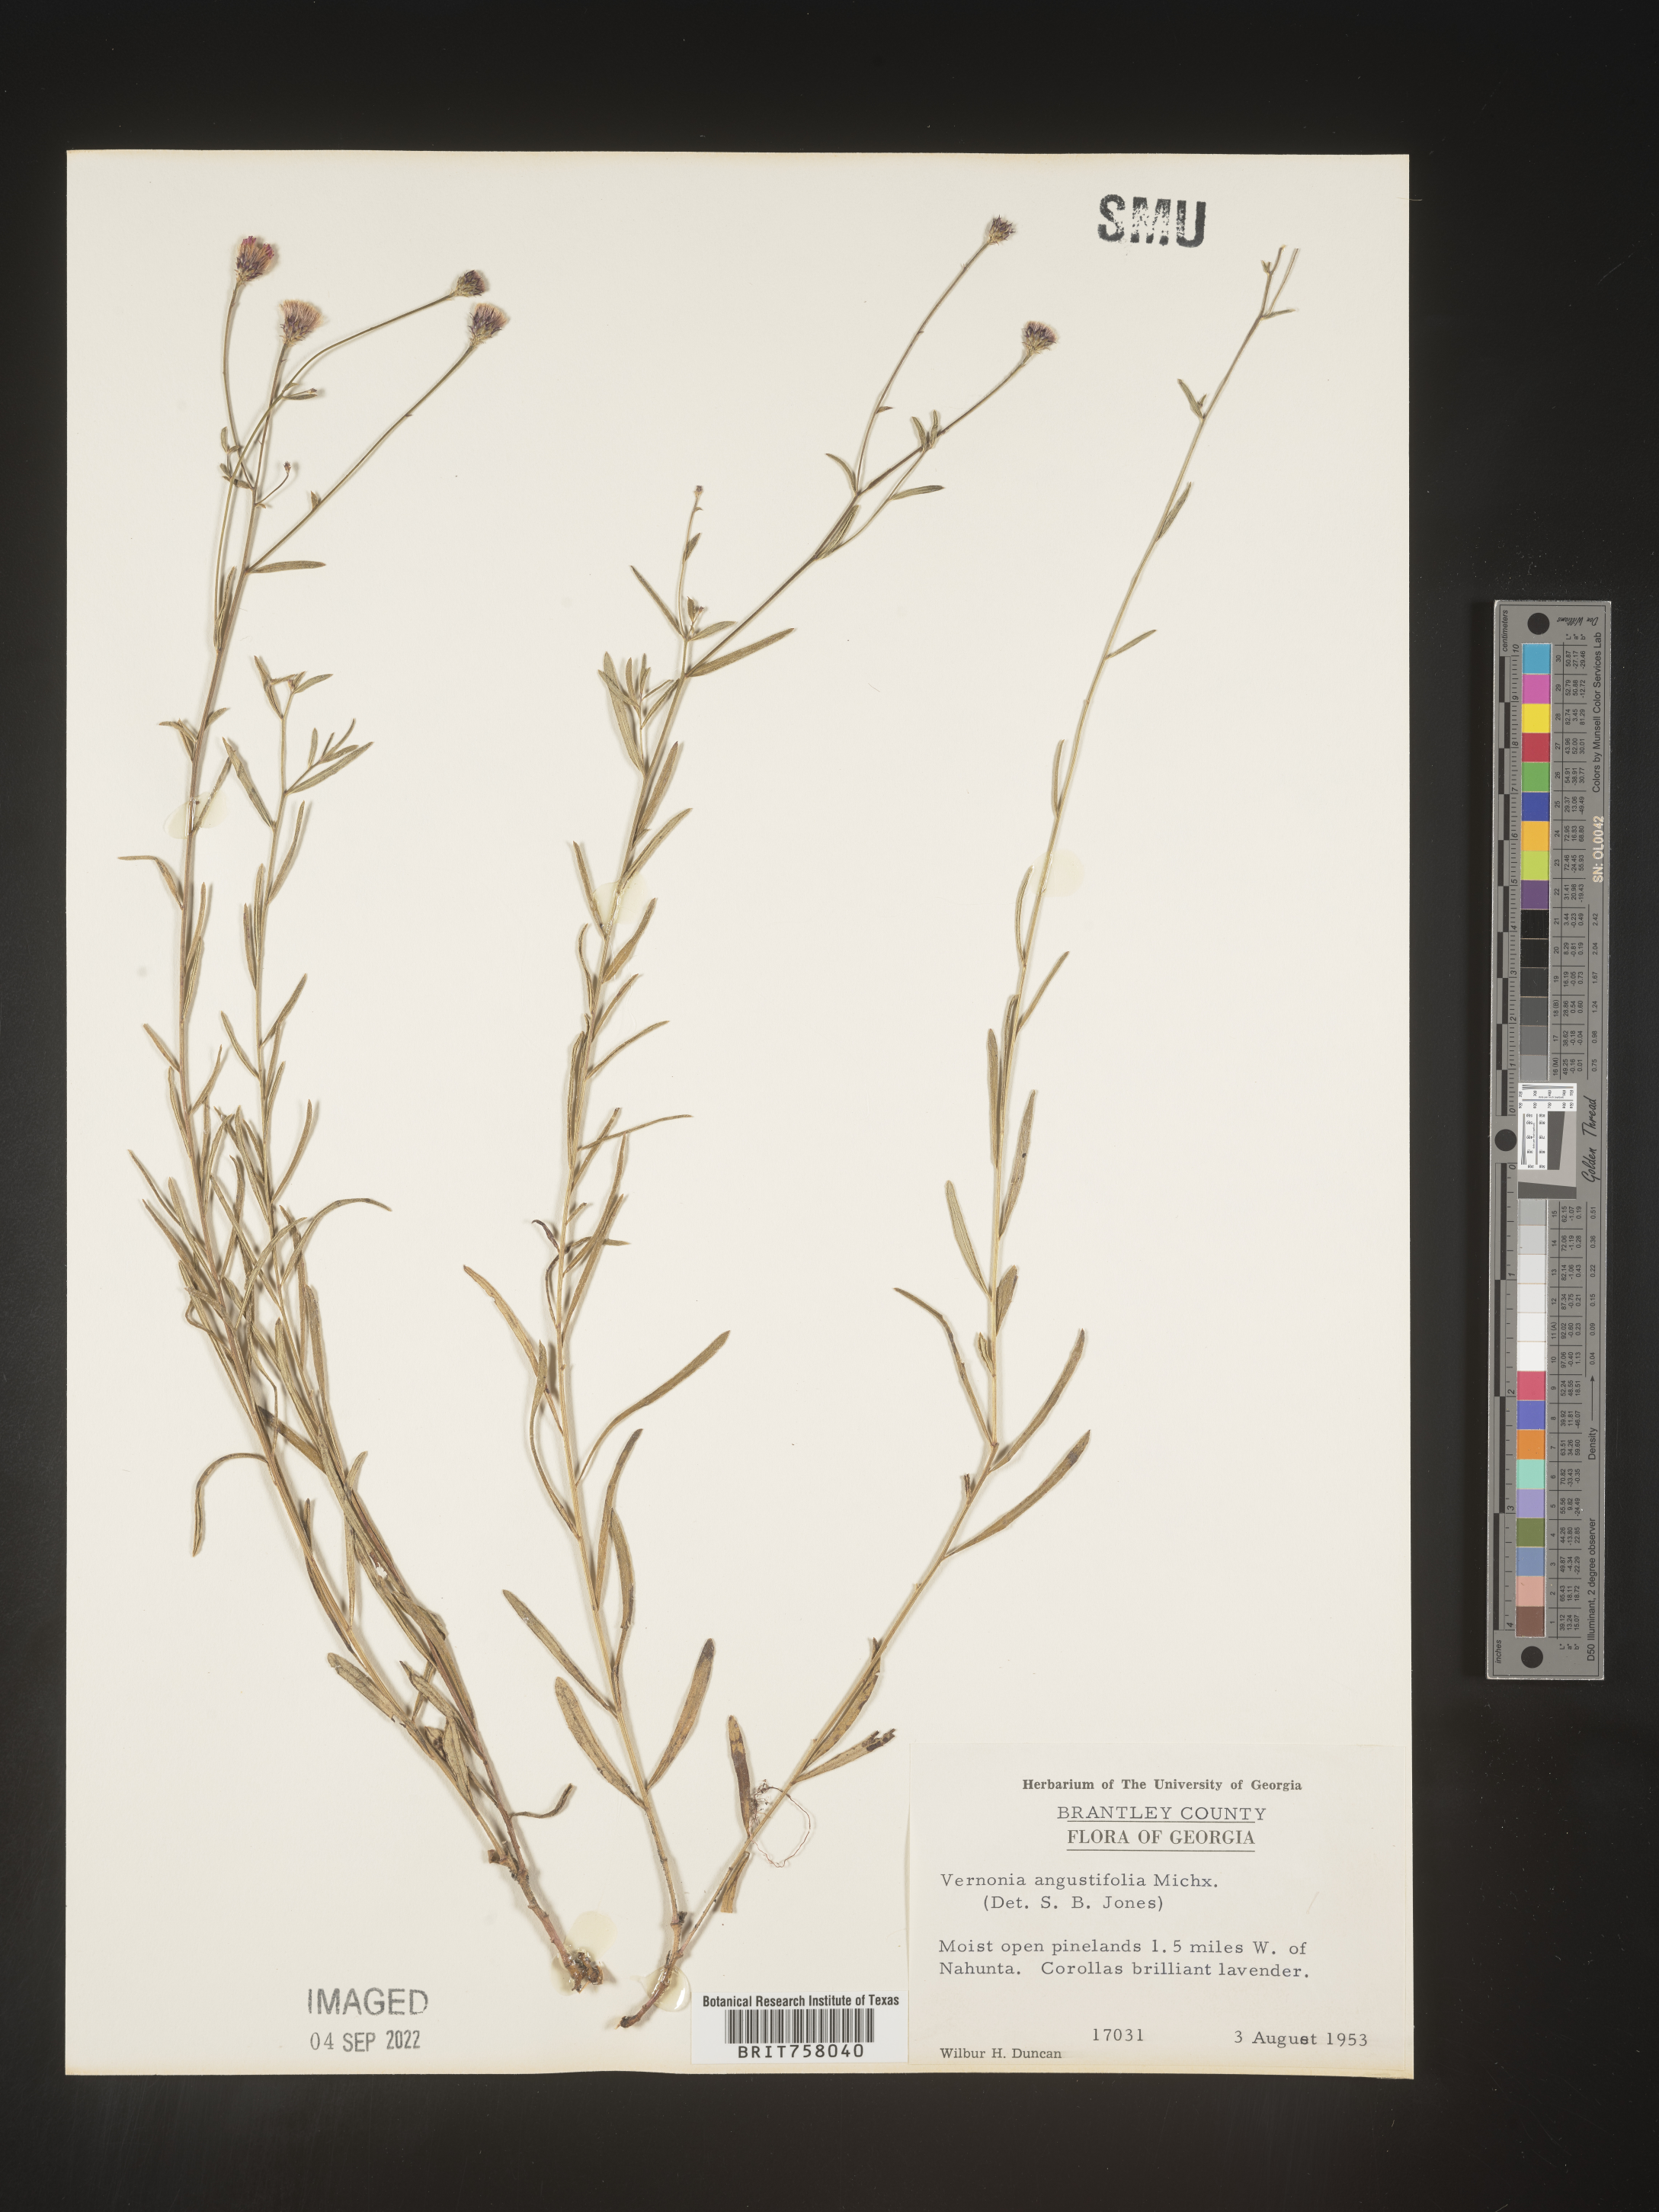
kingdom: Plantae
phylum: Tracheophyta
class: Magnoliopsida
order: Asterales
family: Asteraceae
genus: Vernonia
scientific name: Vernonia angustifolia
